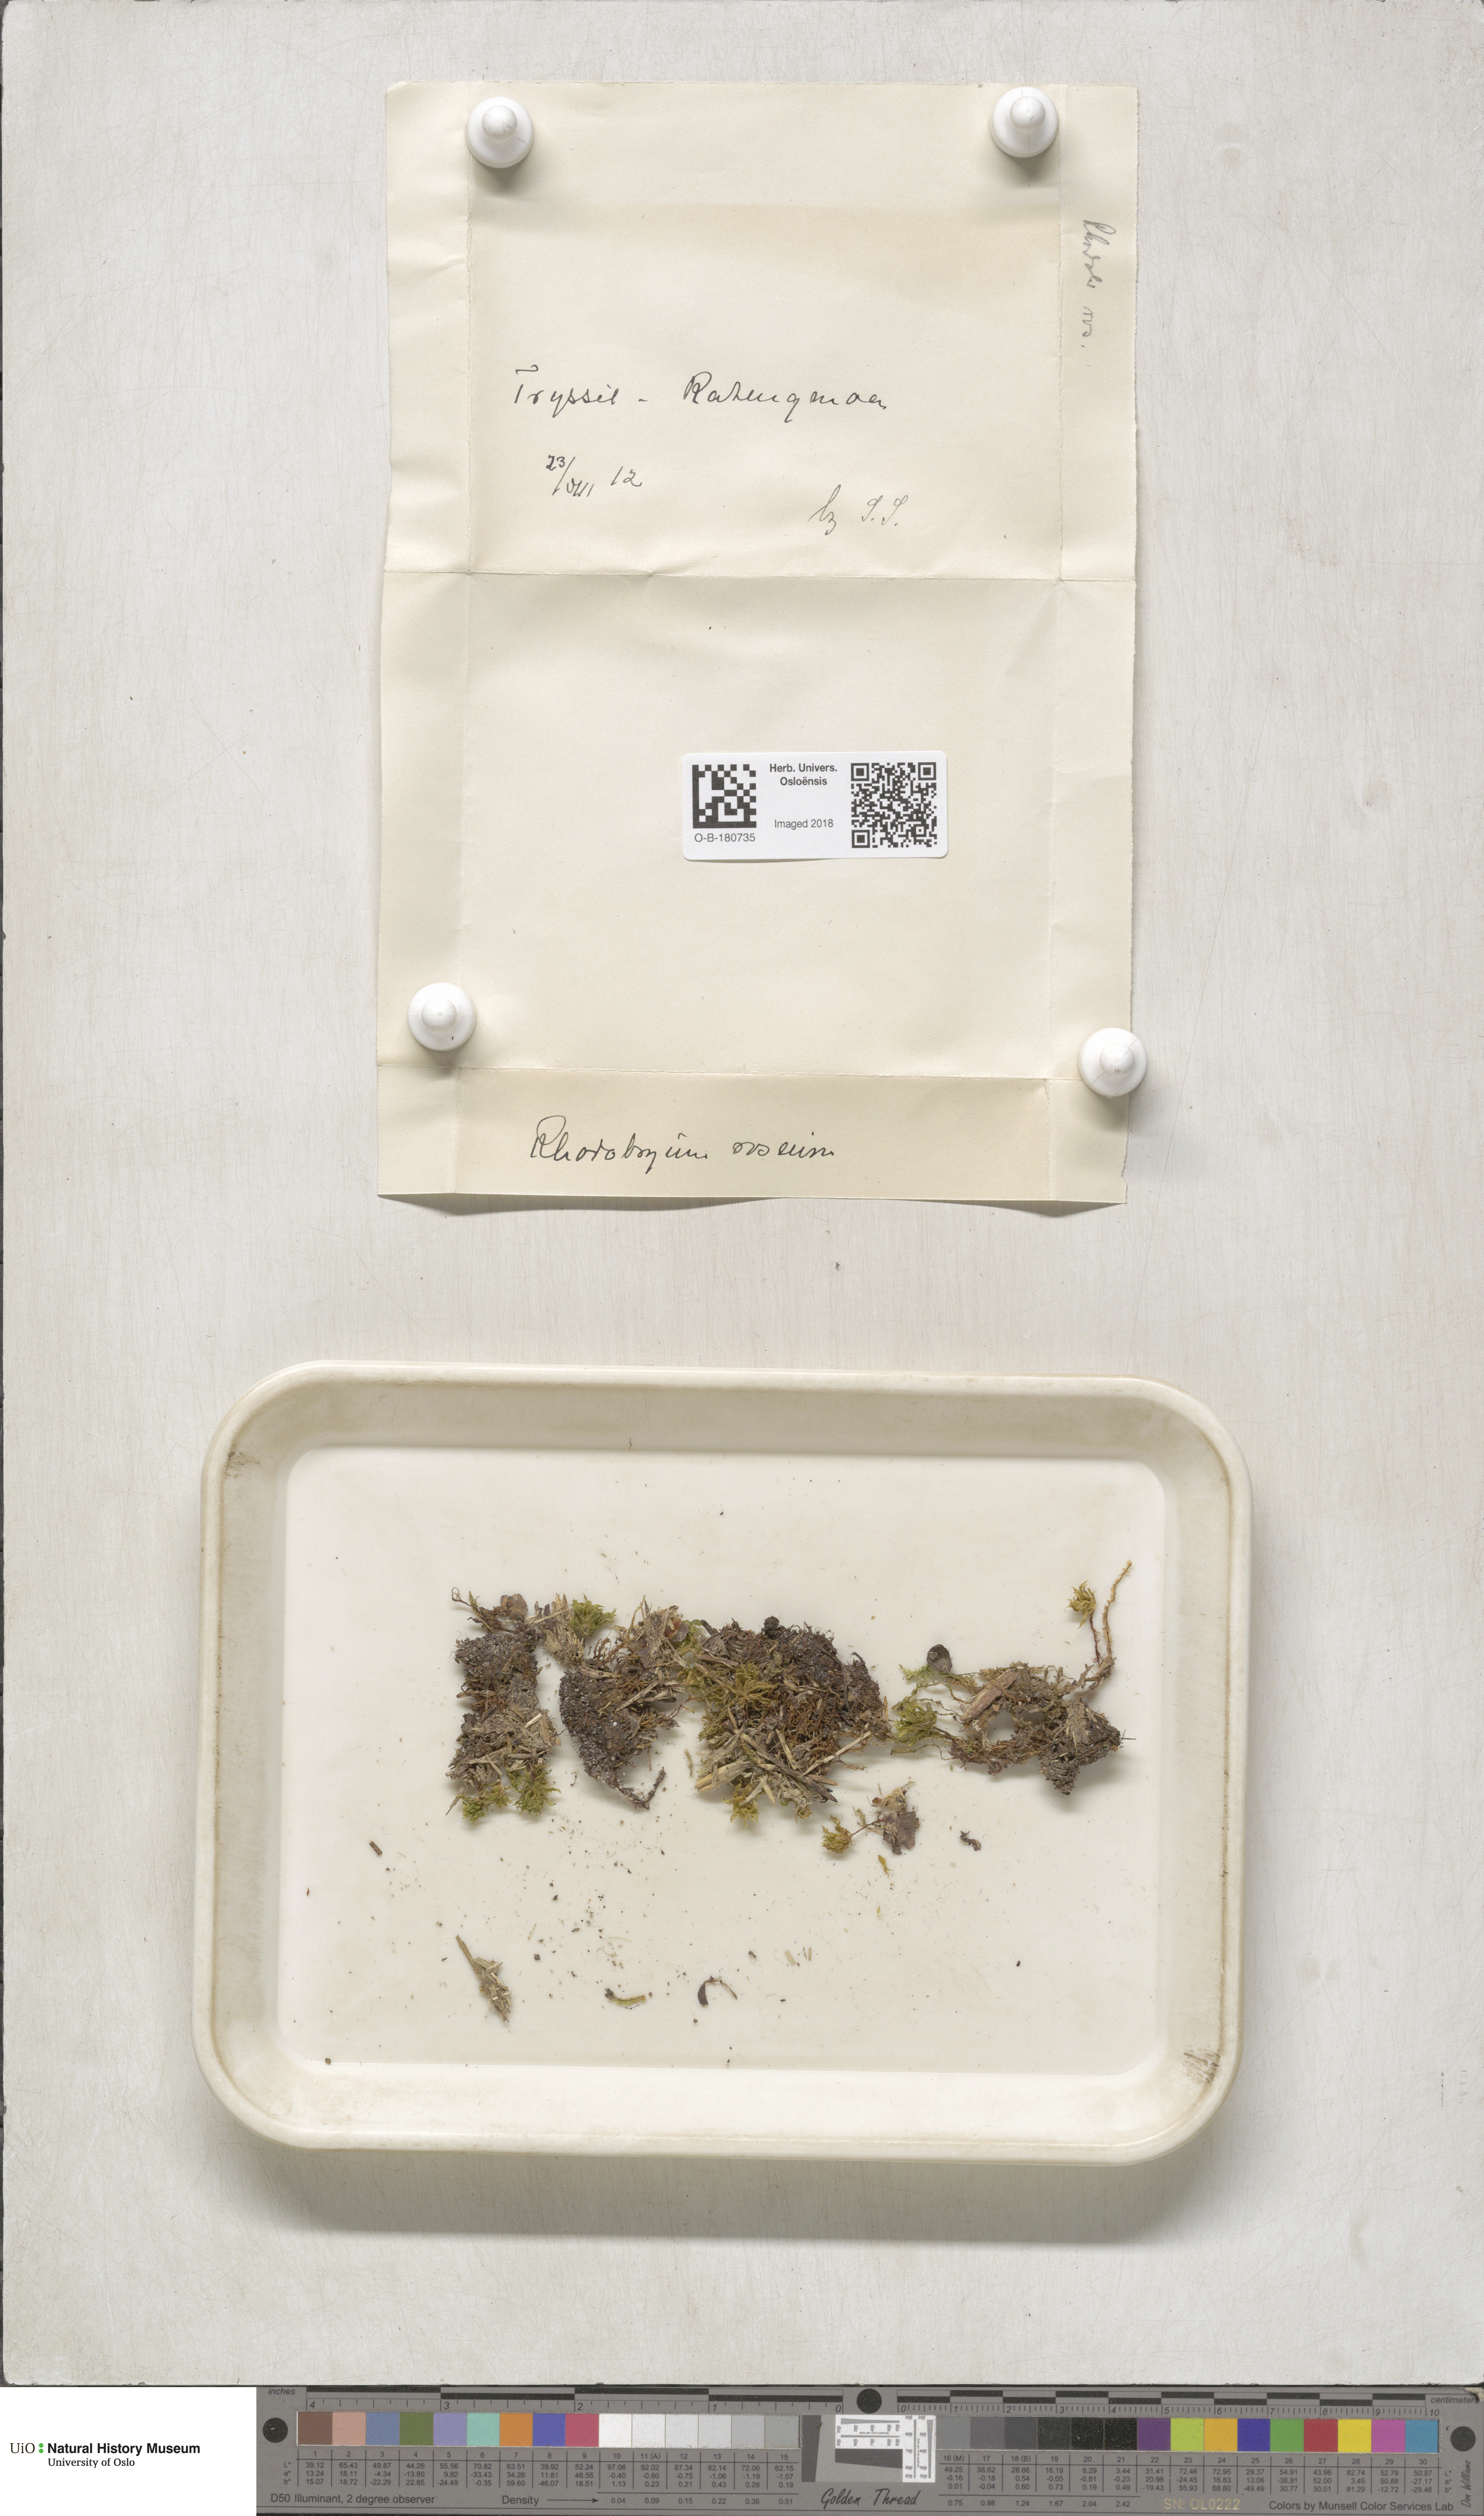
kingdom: Plantae
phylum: Bryophyta
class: Bryopsida
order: Bryales
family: Bryaceae
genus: Rhodobryum
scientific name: Rhodobryum roseum
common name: Rose-moss
